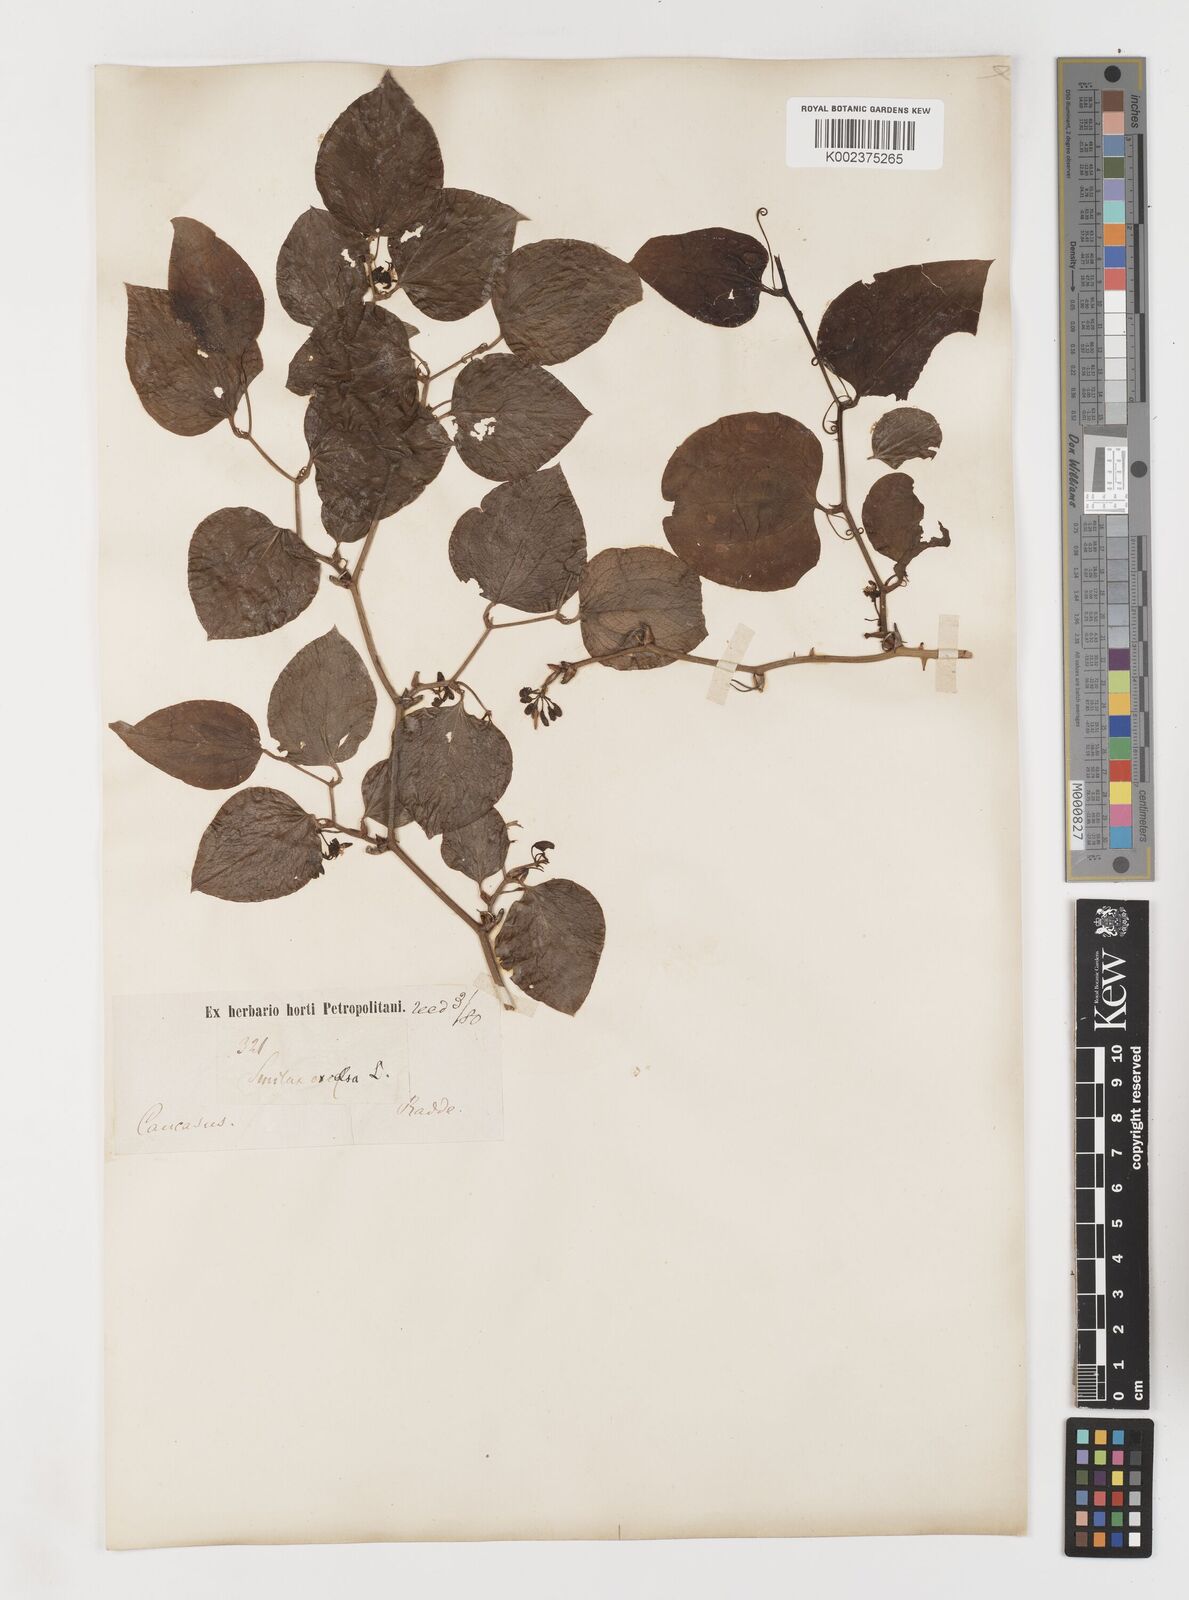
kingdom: Plantae
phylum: Tracheophyta
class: Liliopsida
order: Liliales
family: Smilacaceae
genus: Smilax
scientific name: Smilax excelsa
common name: Larger smilax
